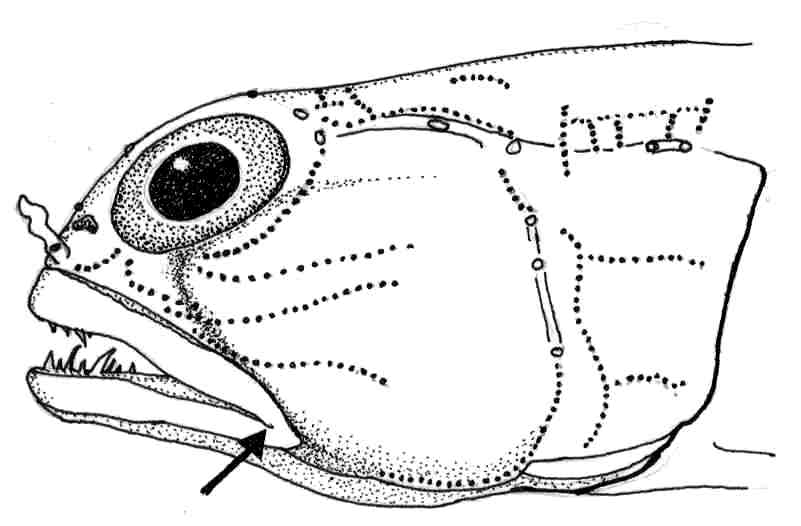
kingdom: Animalia
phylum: Chordata
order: Perciformes
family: Gobiidae
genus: Tomiyamichthys
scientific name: Tomiyamichthys fourmanoiri
